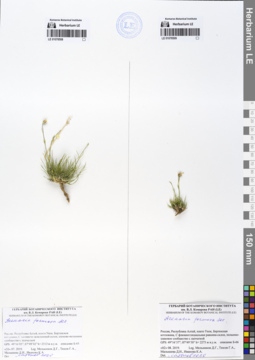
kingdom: Plantae
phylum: Tracheophyta
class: Magnoliopsida
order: Caryophyllales
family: Caryophyllaceae
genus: Eremogone
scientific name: Eremogone formosa
